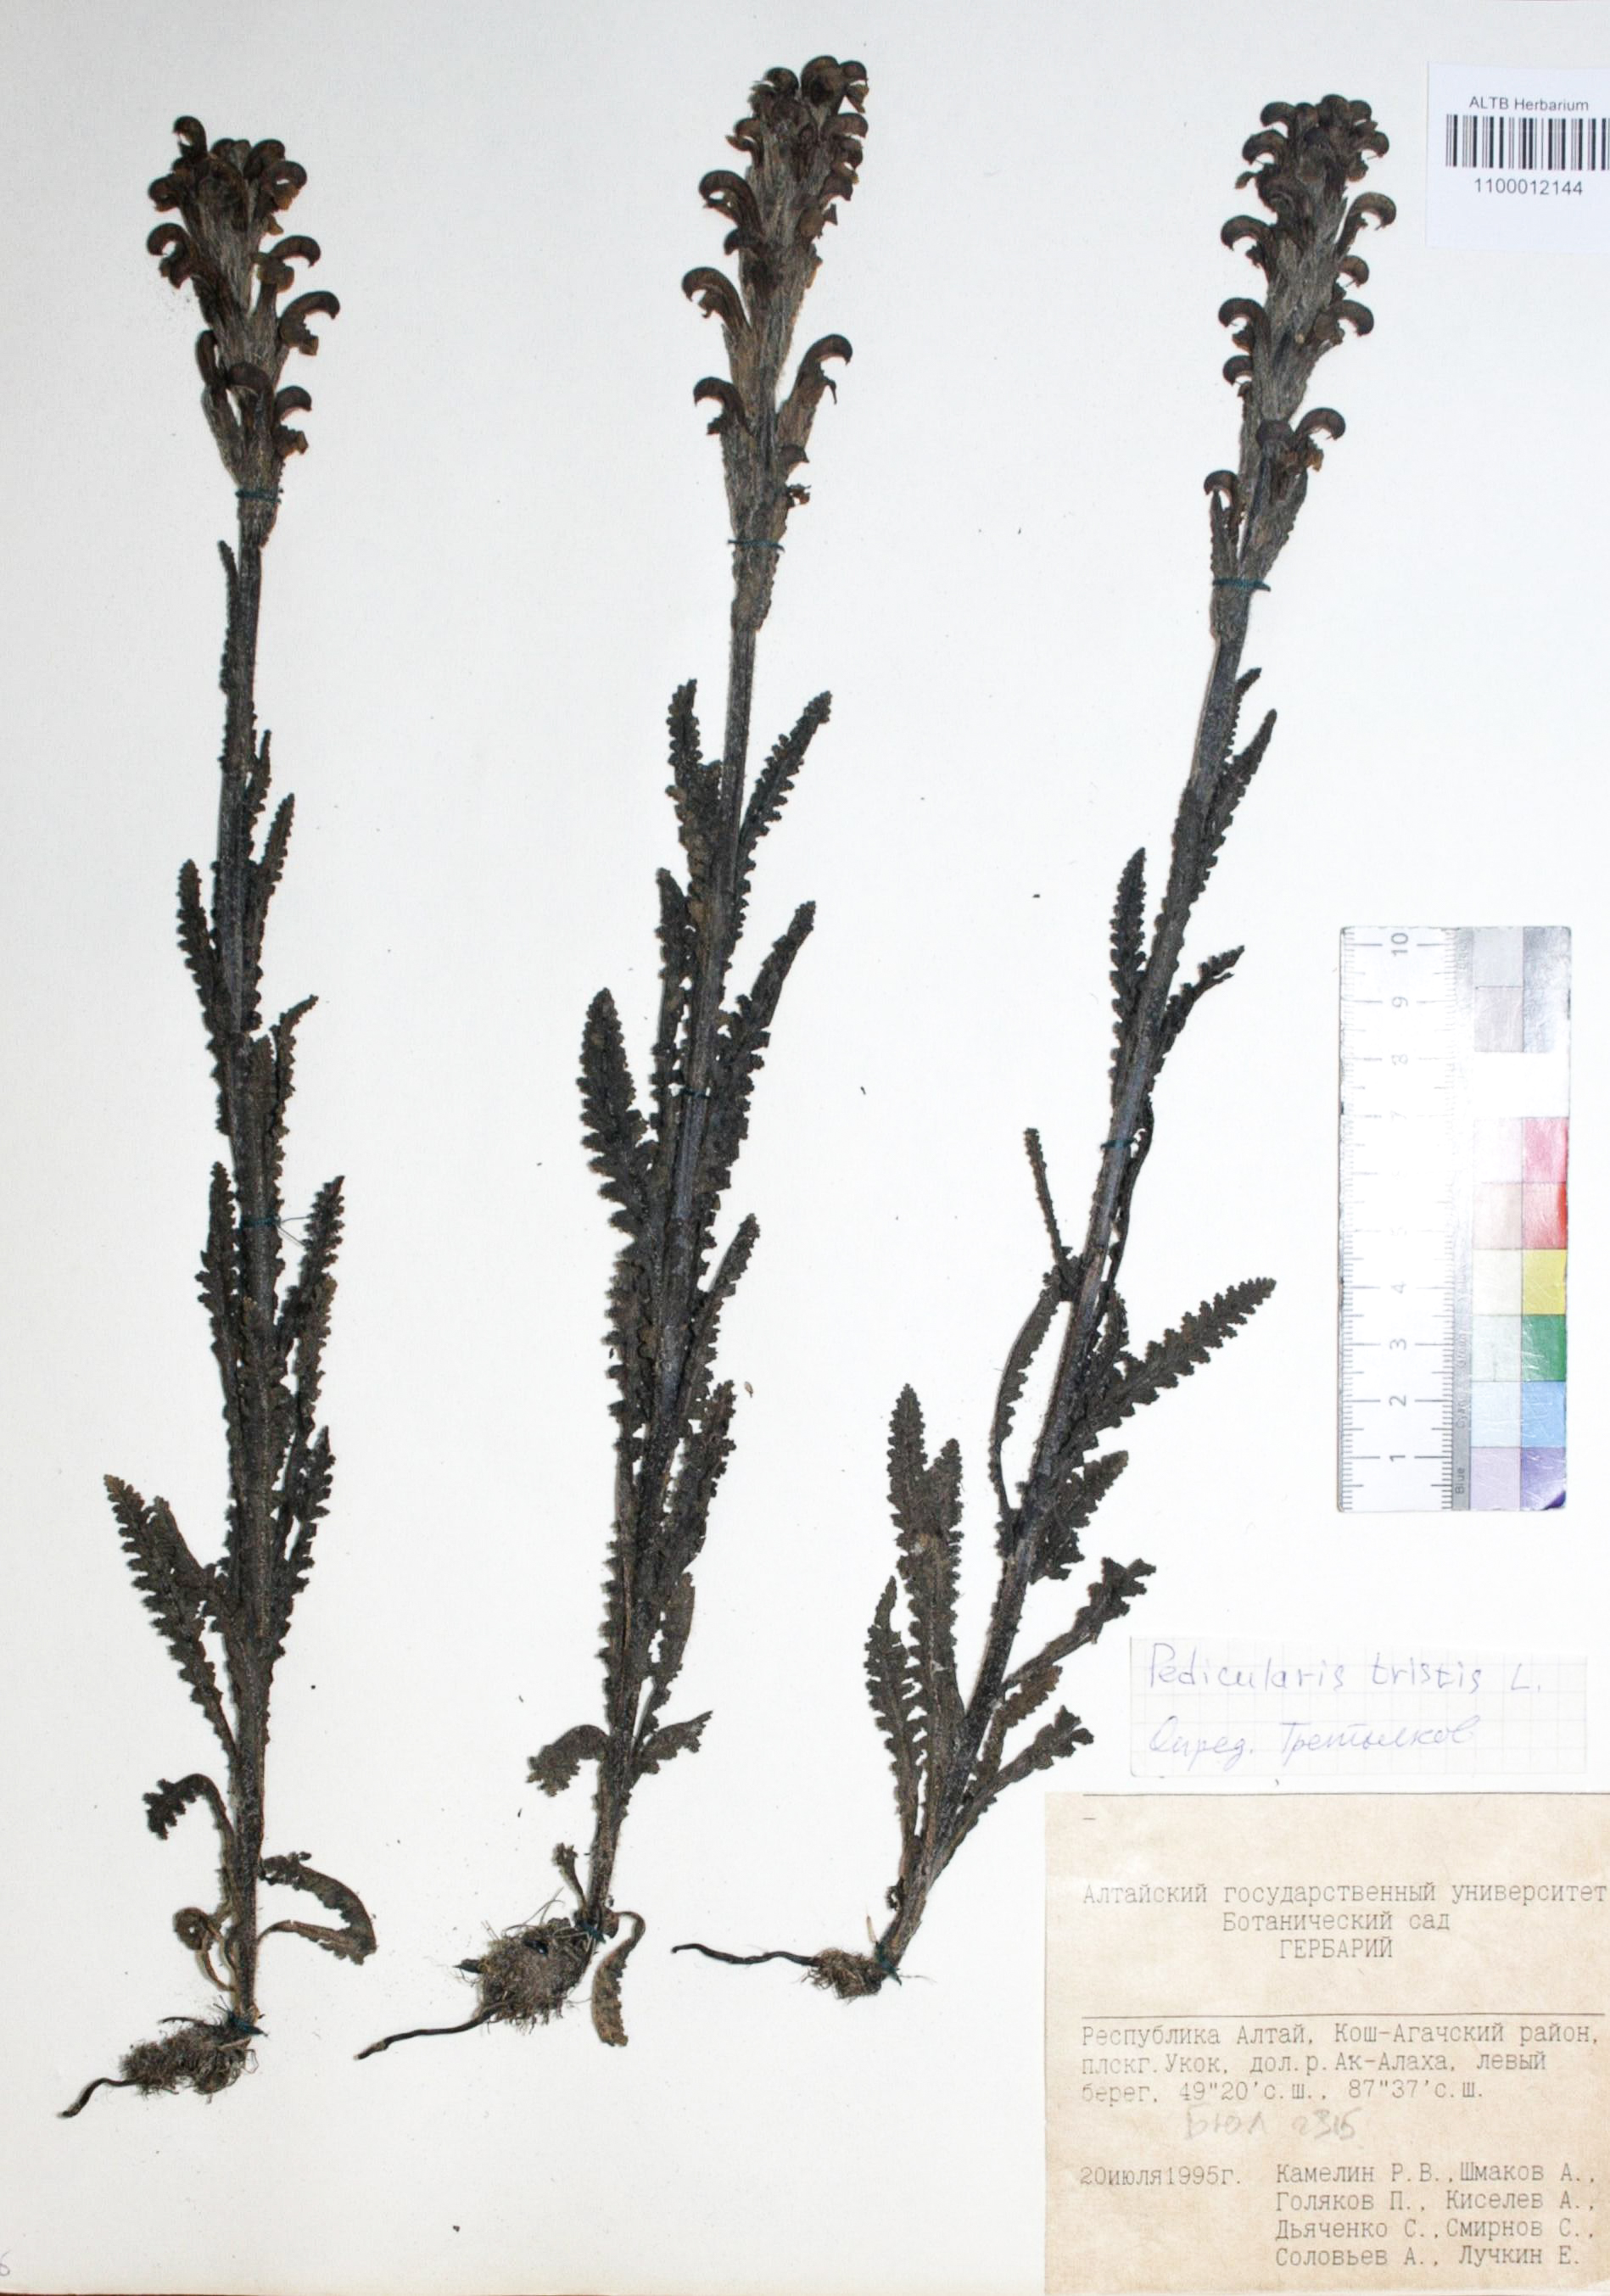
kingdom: Plantae
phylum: Tracheophyta
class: Magnoliopsida
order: Lamiales
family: Orobanchaceae
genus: Pedicularis
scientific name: Pedicularis tristis
